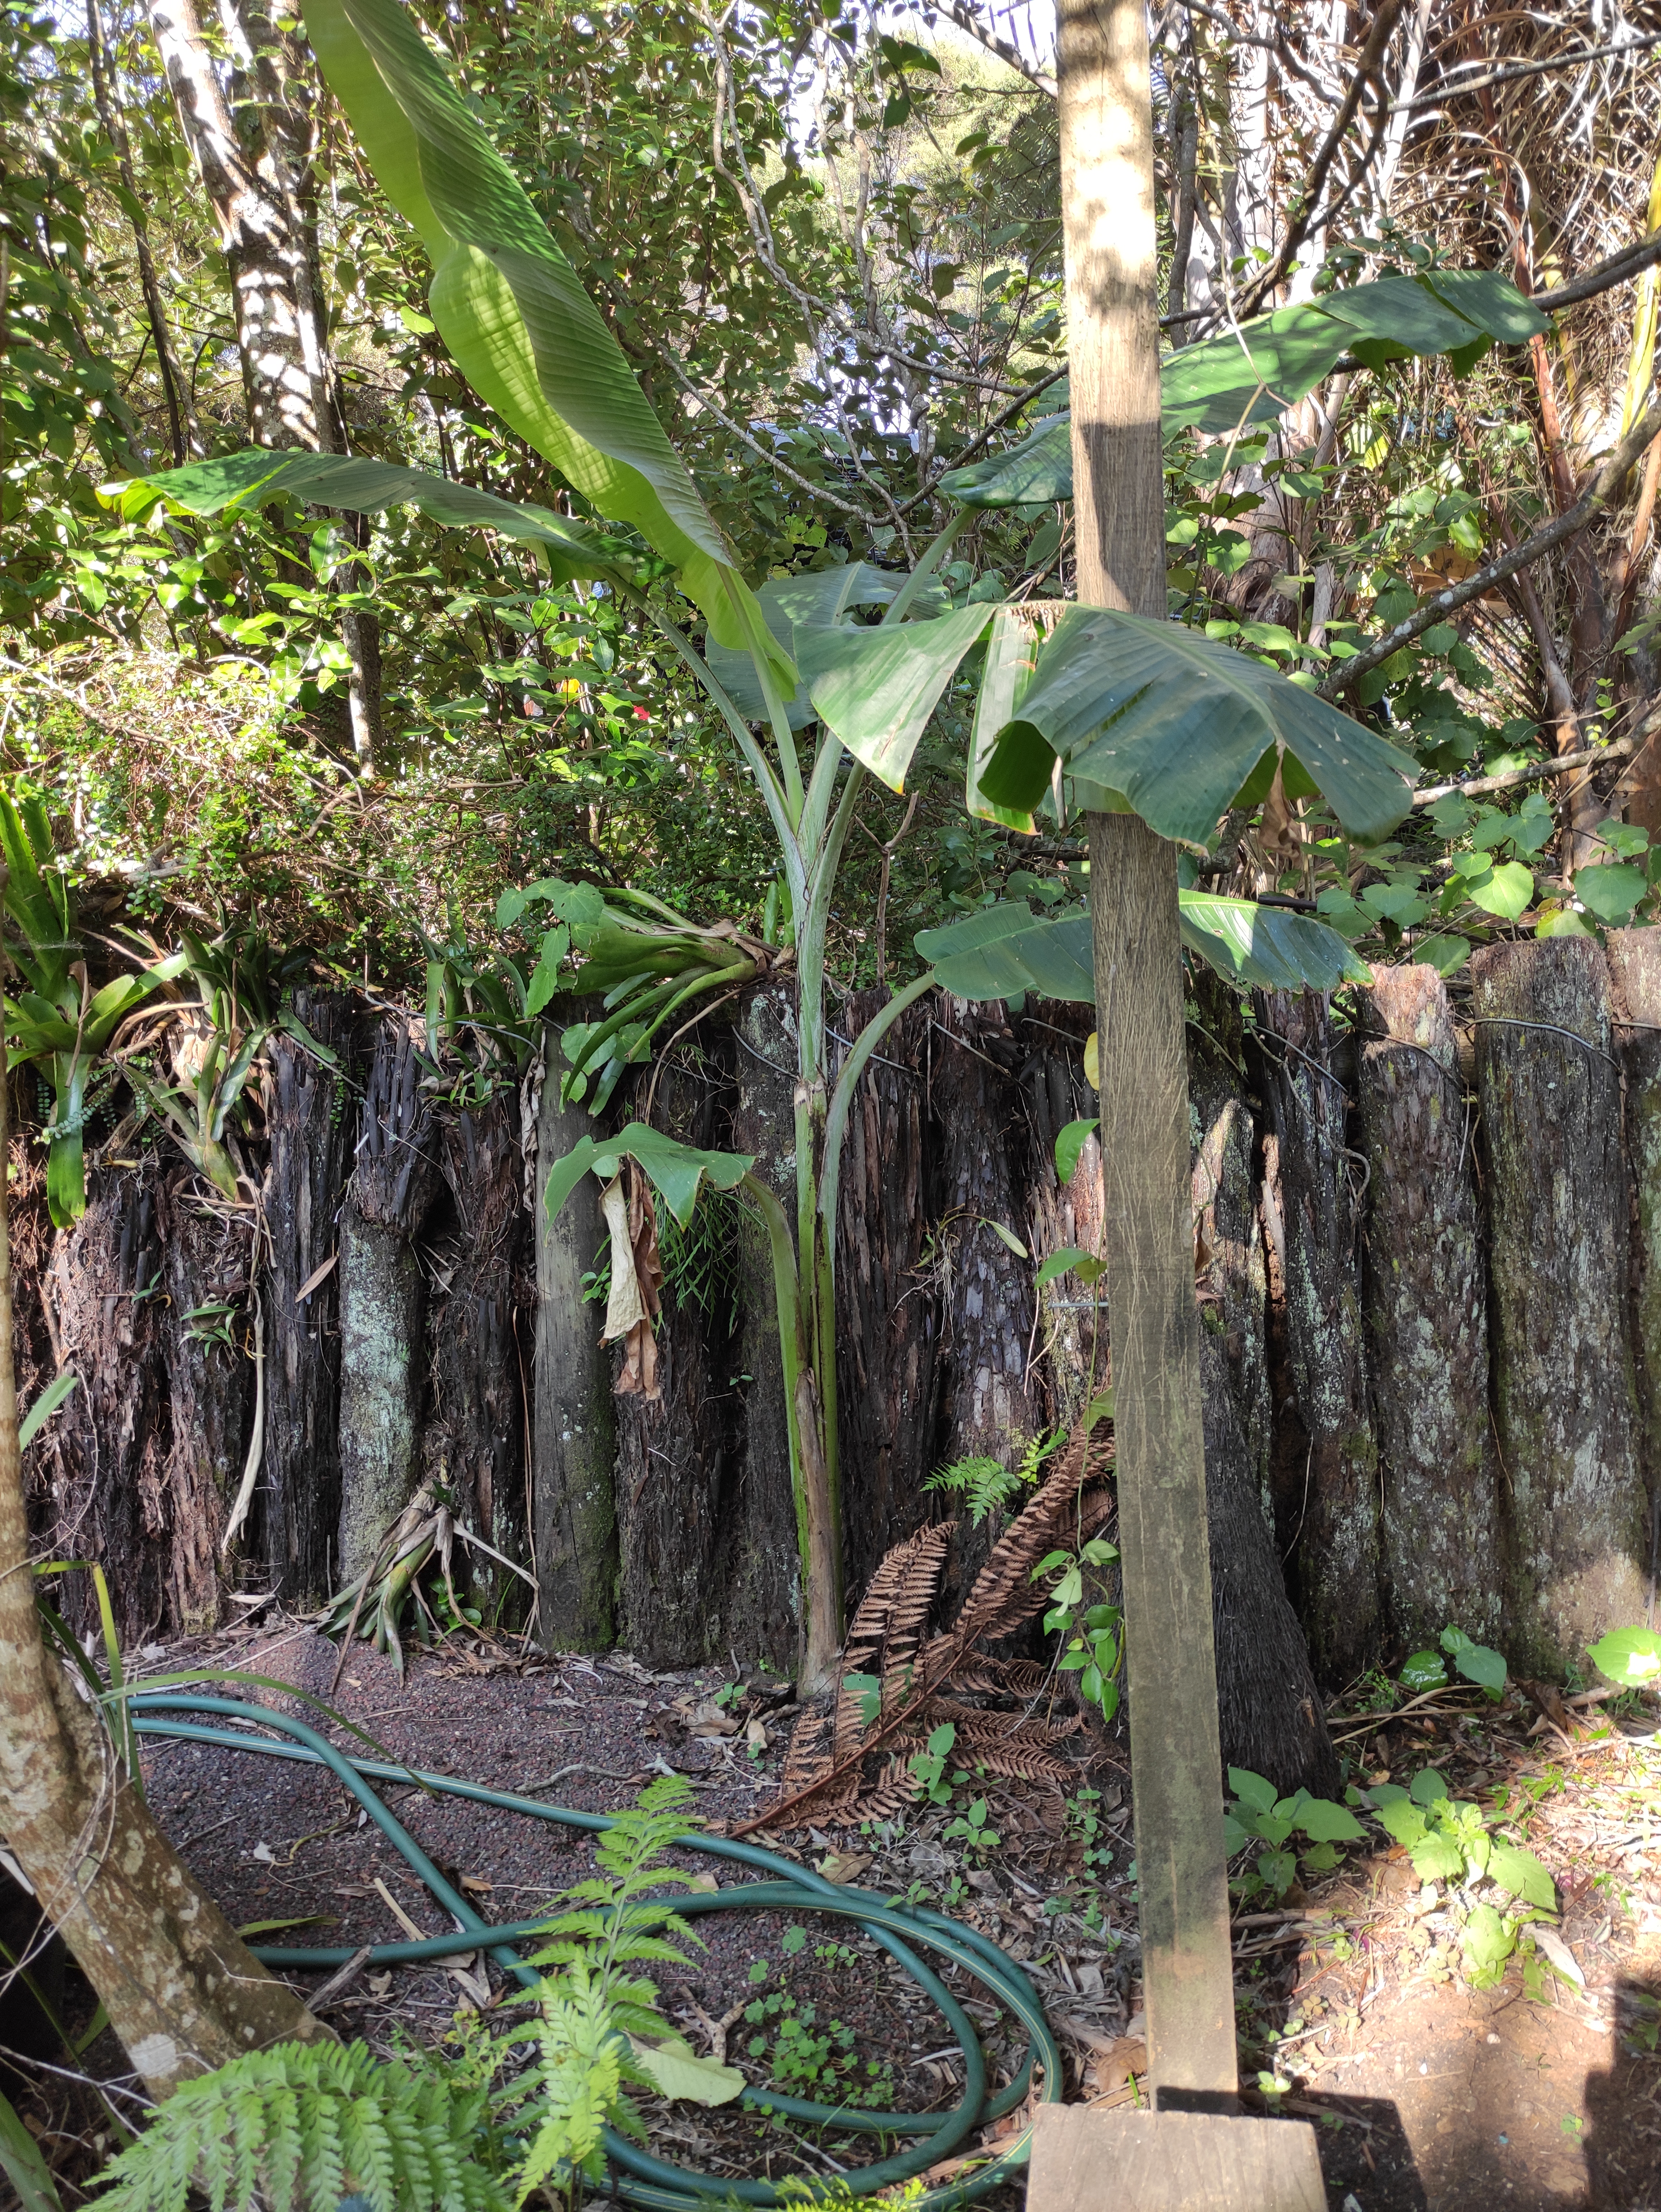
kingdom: Plantae
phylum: Tracheophyta
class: Liliopsida
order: Zingiberales
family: Musaceae
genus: Musa
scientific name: Musa acuminata
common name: Edible banana
